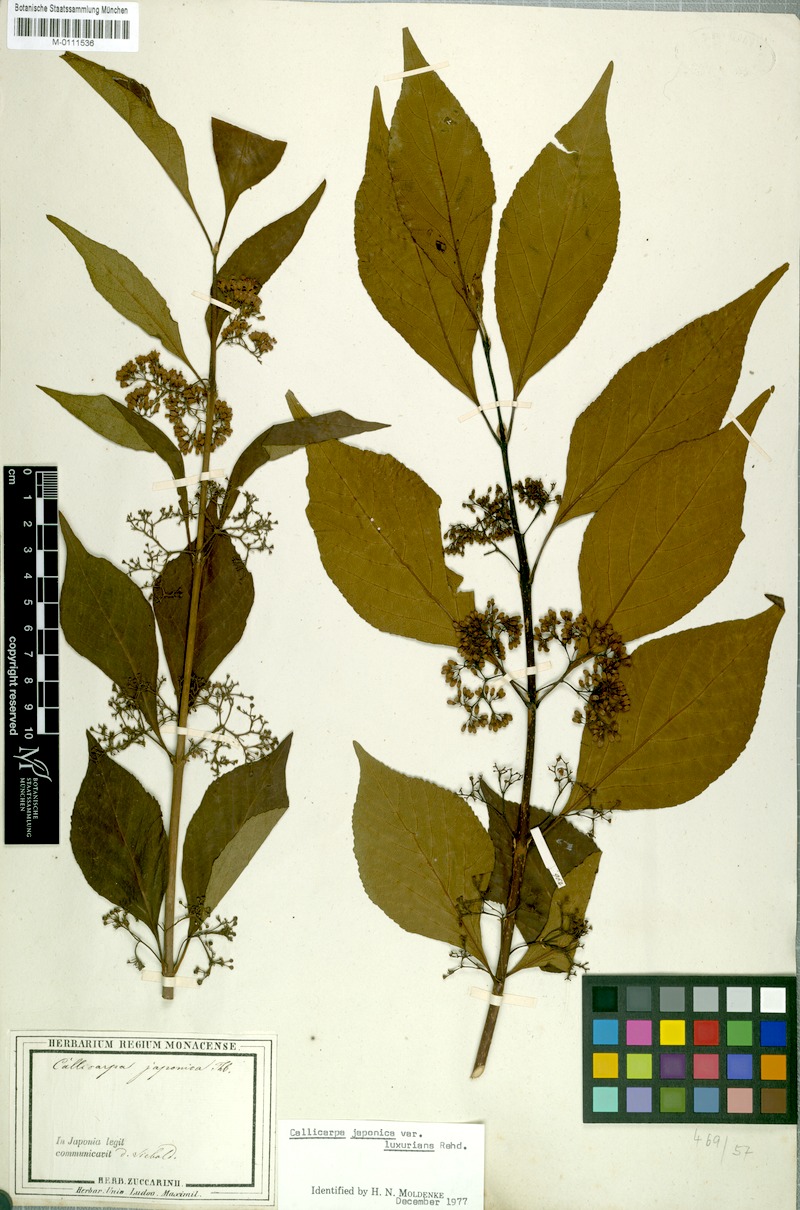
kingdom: Plantae
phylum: Tracheophyta
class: Magnoliopsida
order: Lamiales
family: Lamiaceae
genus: Callicarpa
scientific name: Callicarpa japonica
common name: Japanese beauty-berry
